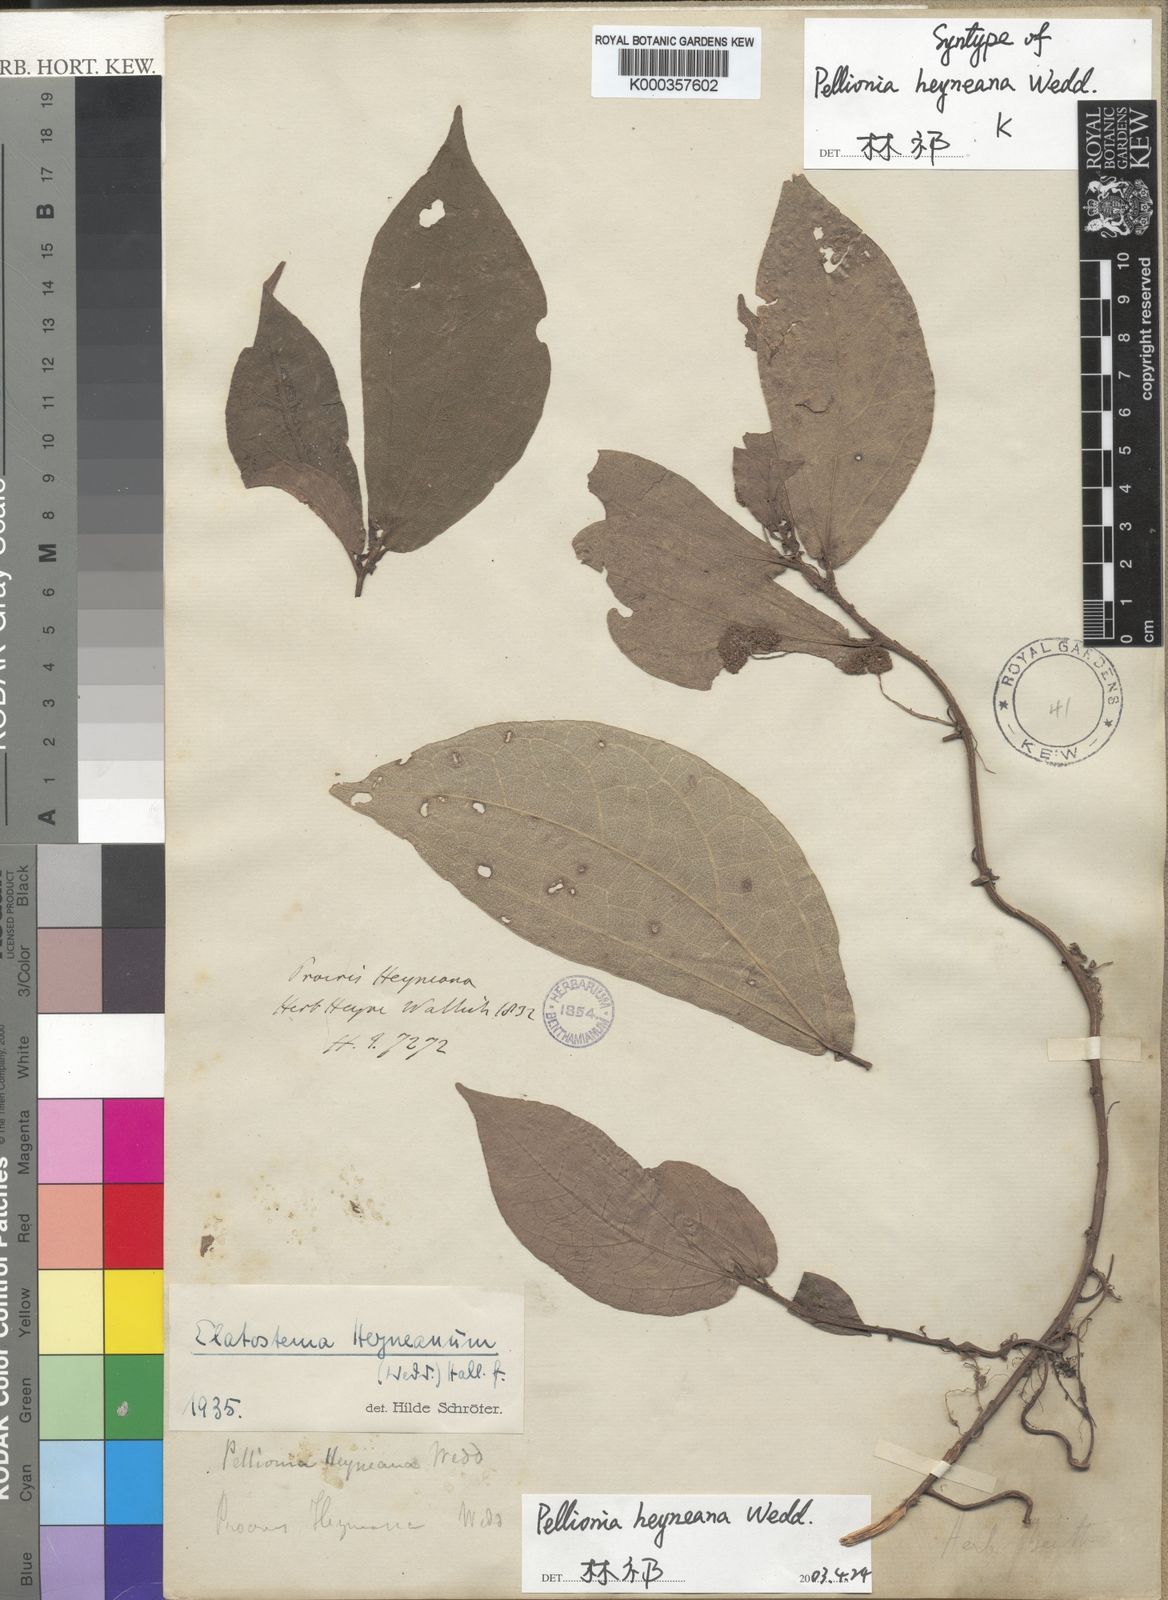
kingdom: Plantae
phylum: Tracheophyta
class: Magnoliopsida
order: Rosales
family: Urticaceae
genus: Elatostema
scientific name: Elatostema heyneanum
